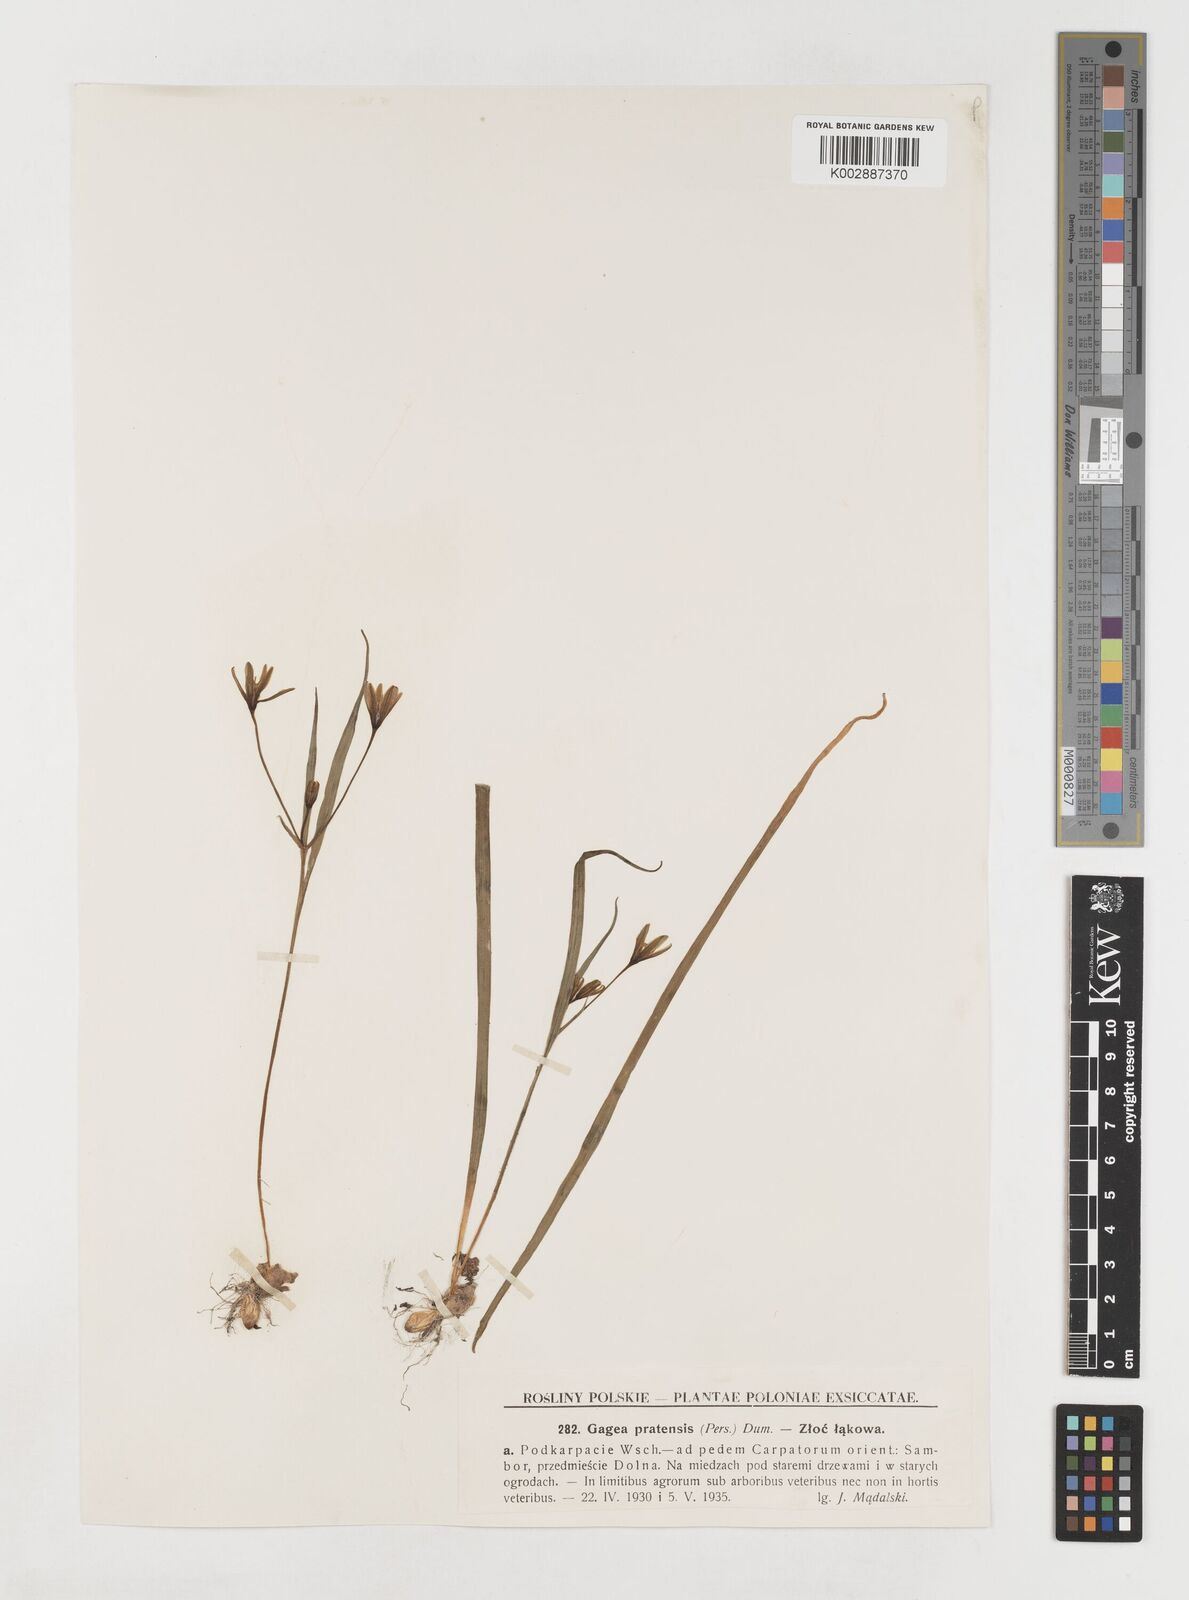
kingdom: Plantae
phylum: Tracheophyta
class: Liliopsida
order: Liliales
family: Liliaceae
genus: Gagea
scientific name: Gagea pratensis
